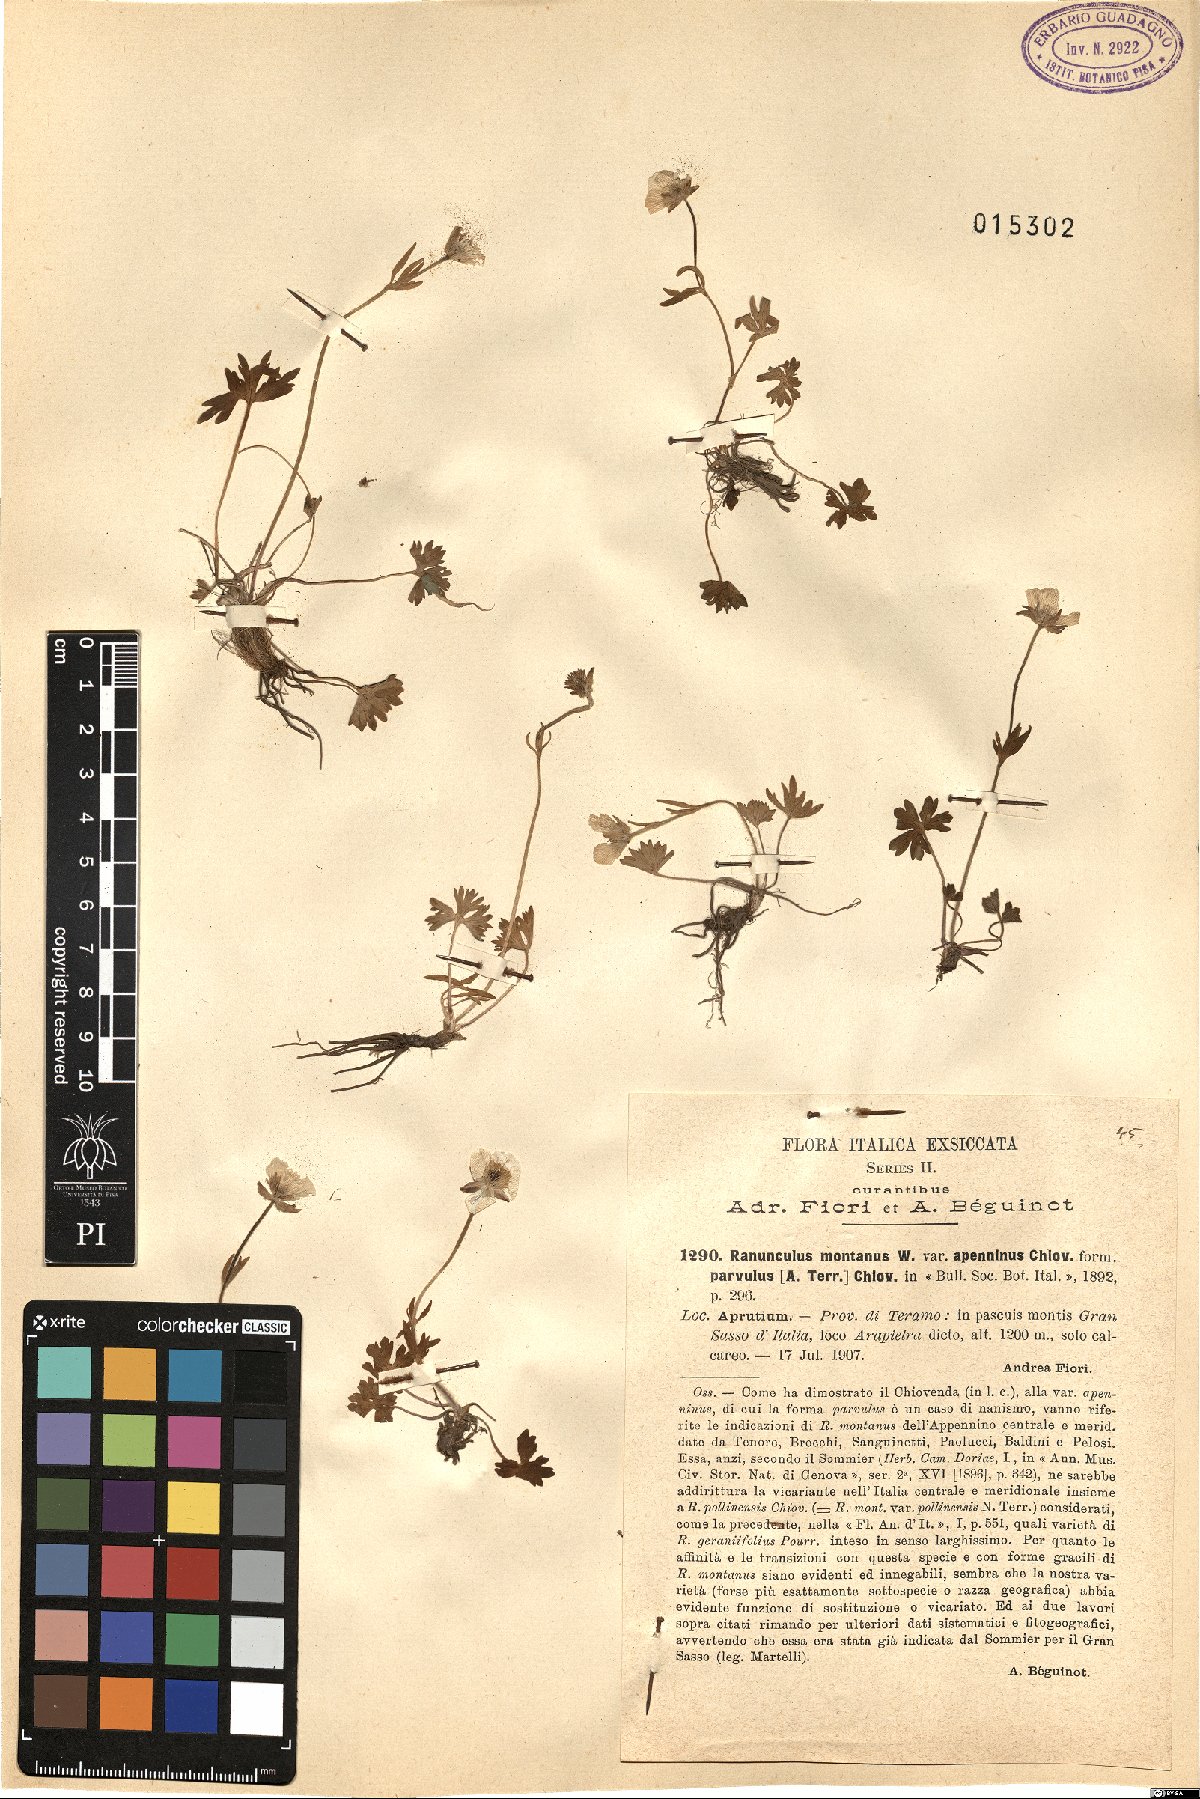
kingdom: Plantae
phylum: Tracheophyta
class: Magnoliopsida
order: Ranunculales
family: Ranunculaceae
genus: Ranunculus
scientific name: Ranunculus apenninus
